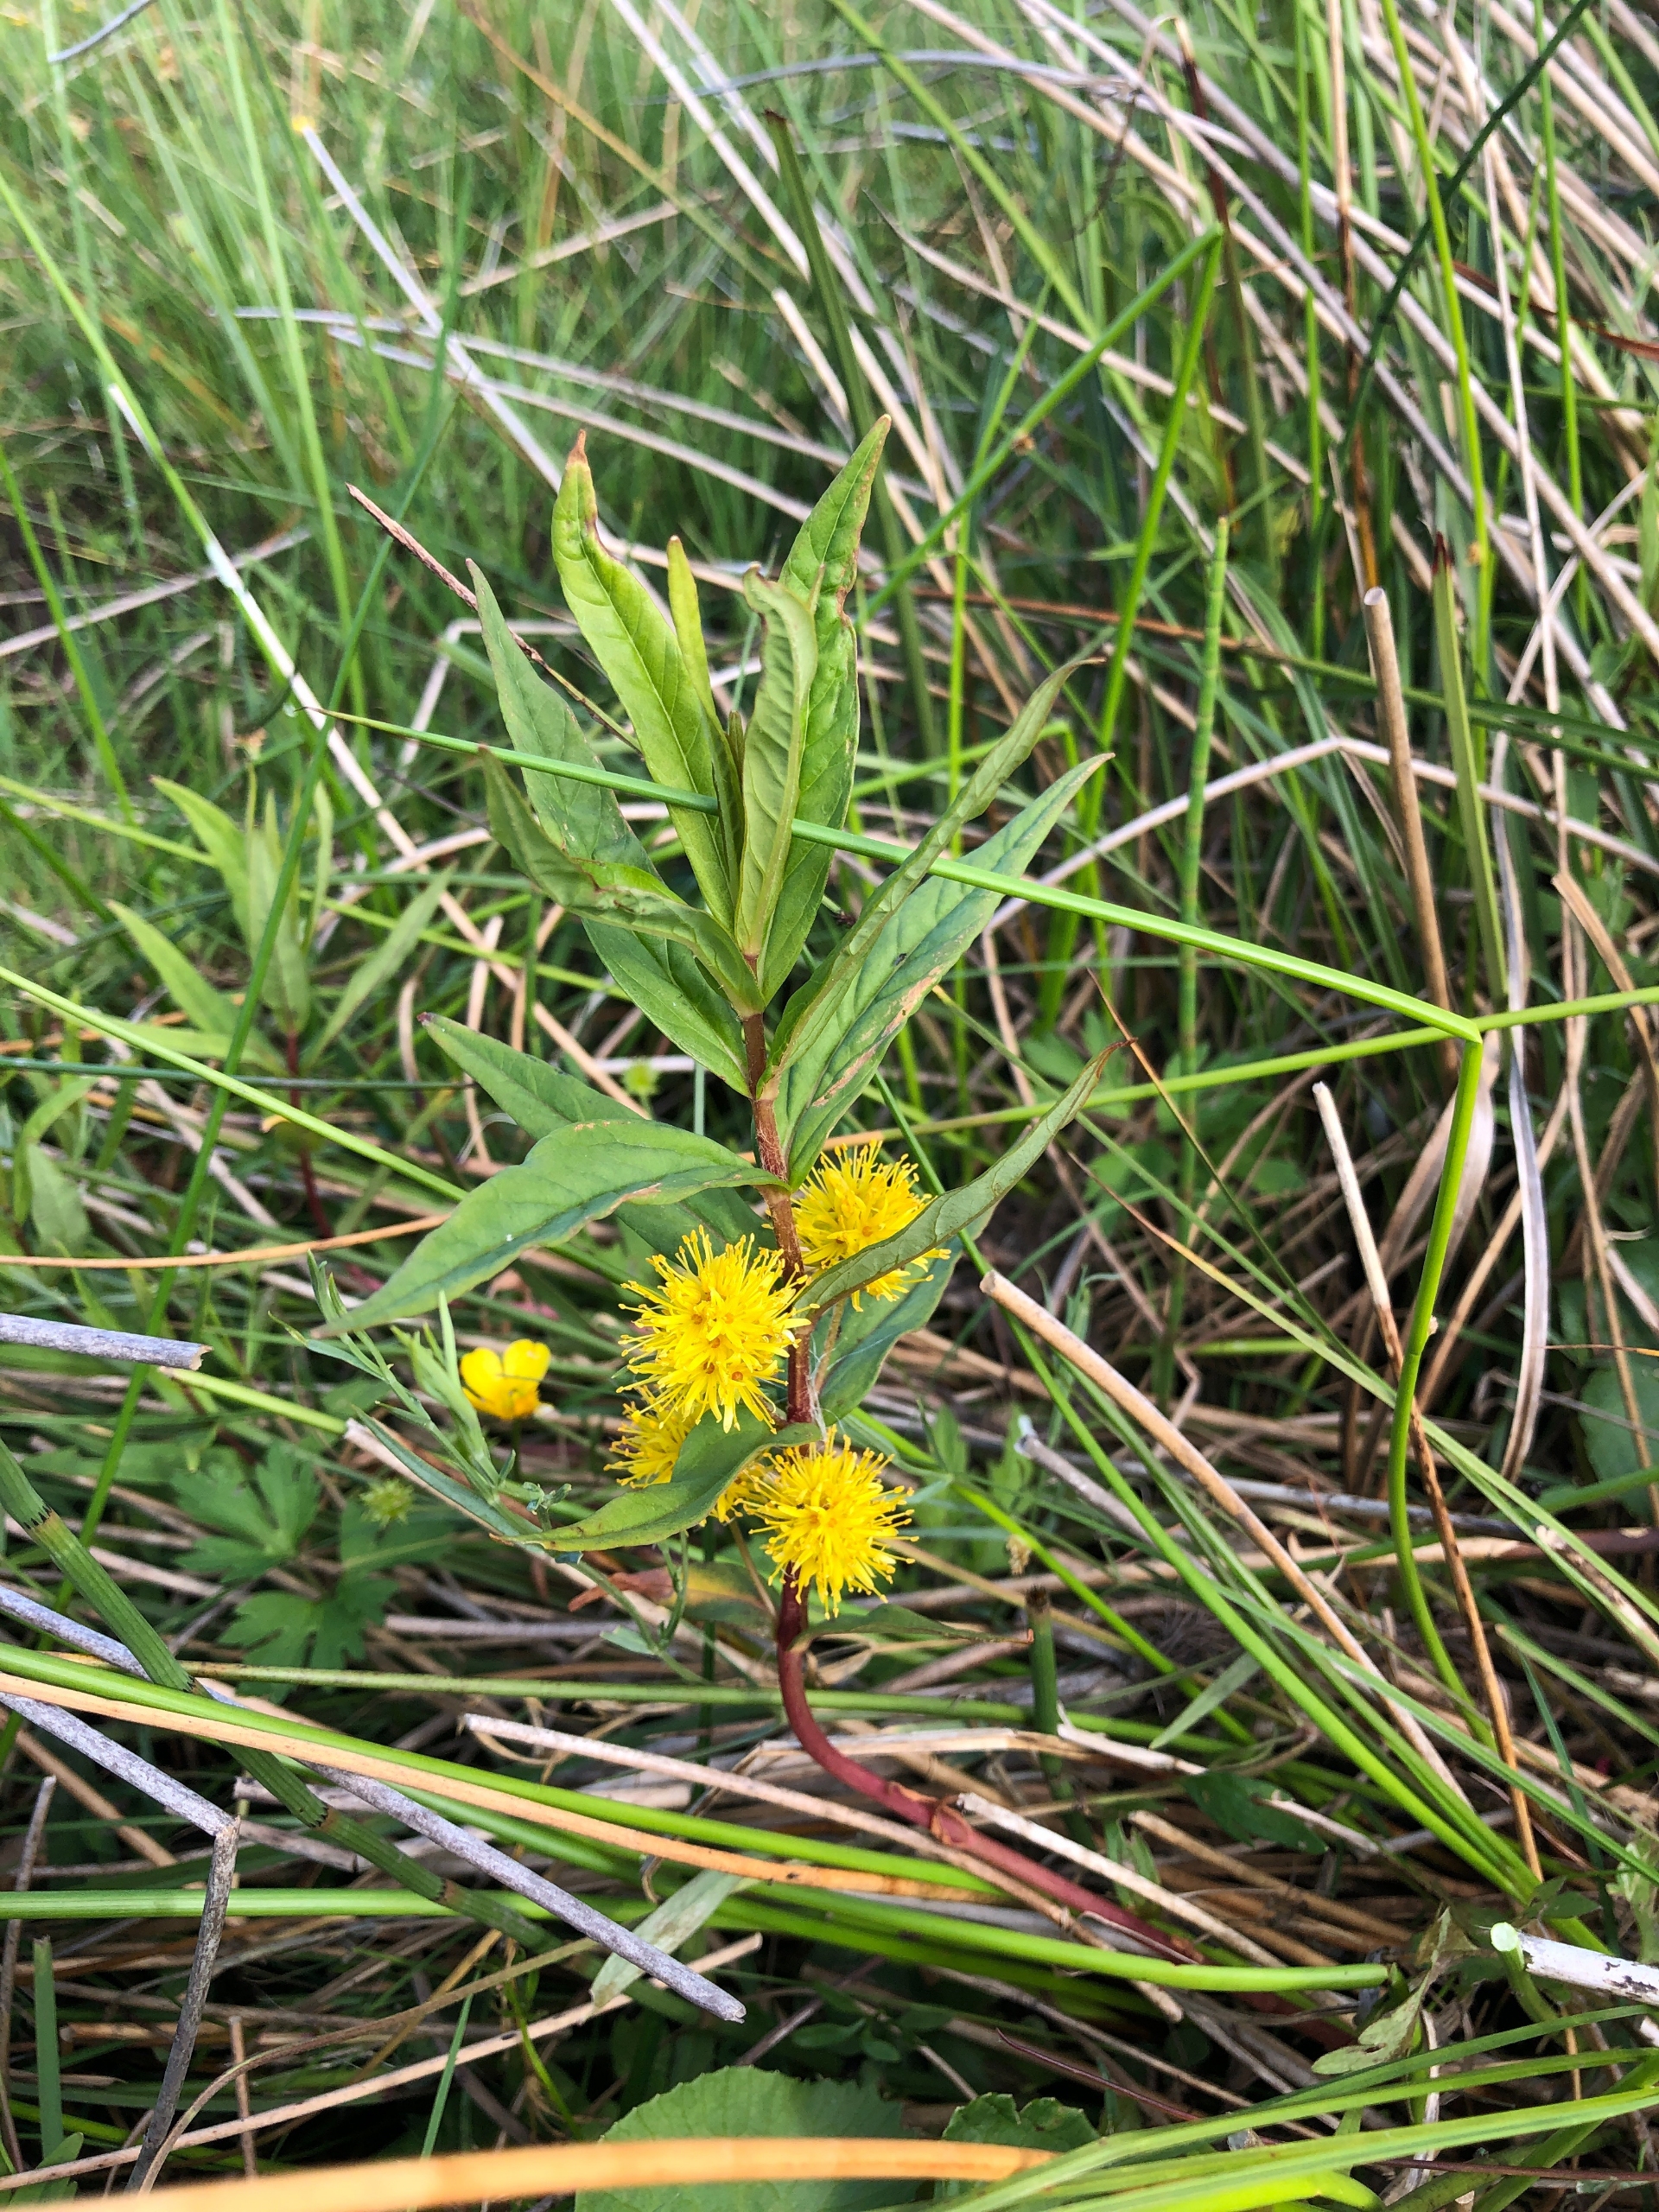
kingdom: Plantae
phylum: Tracheophyta
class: Magnoliopsida
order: Ericales
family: Primulaceae
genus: Lysimachia
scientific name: Lysimachia thyrsiflora
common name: Dusk-fredløs
